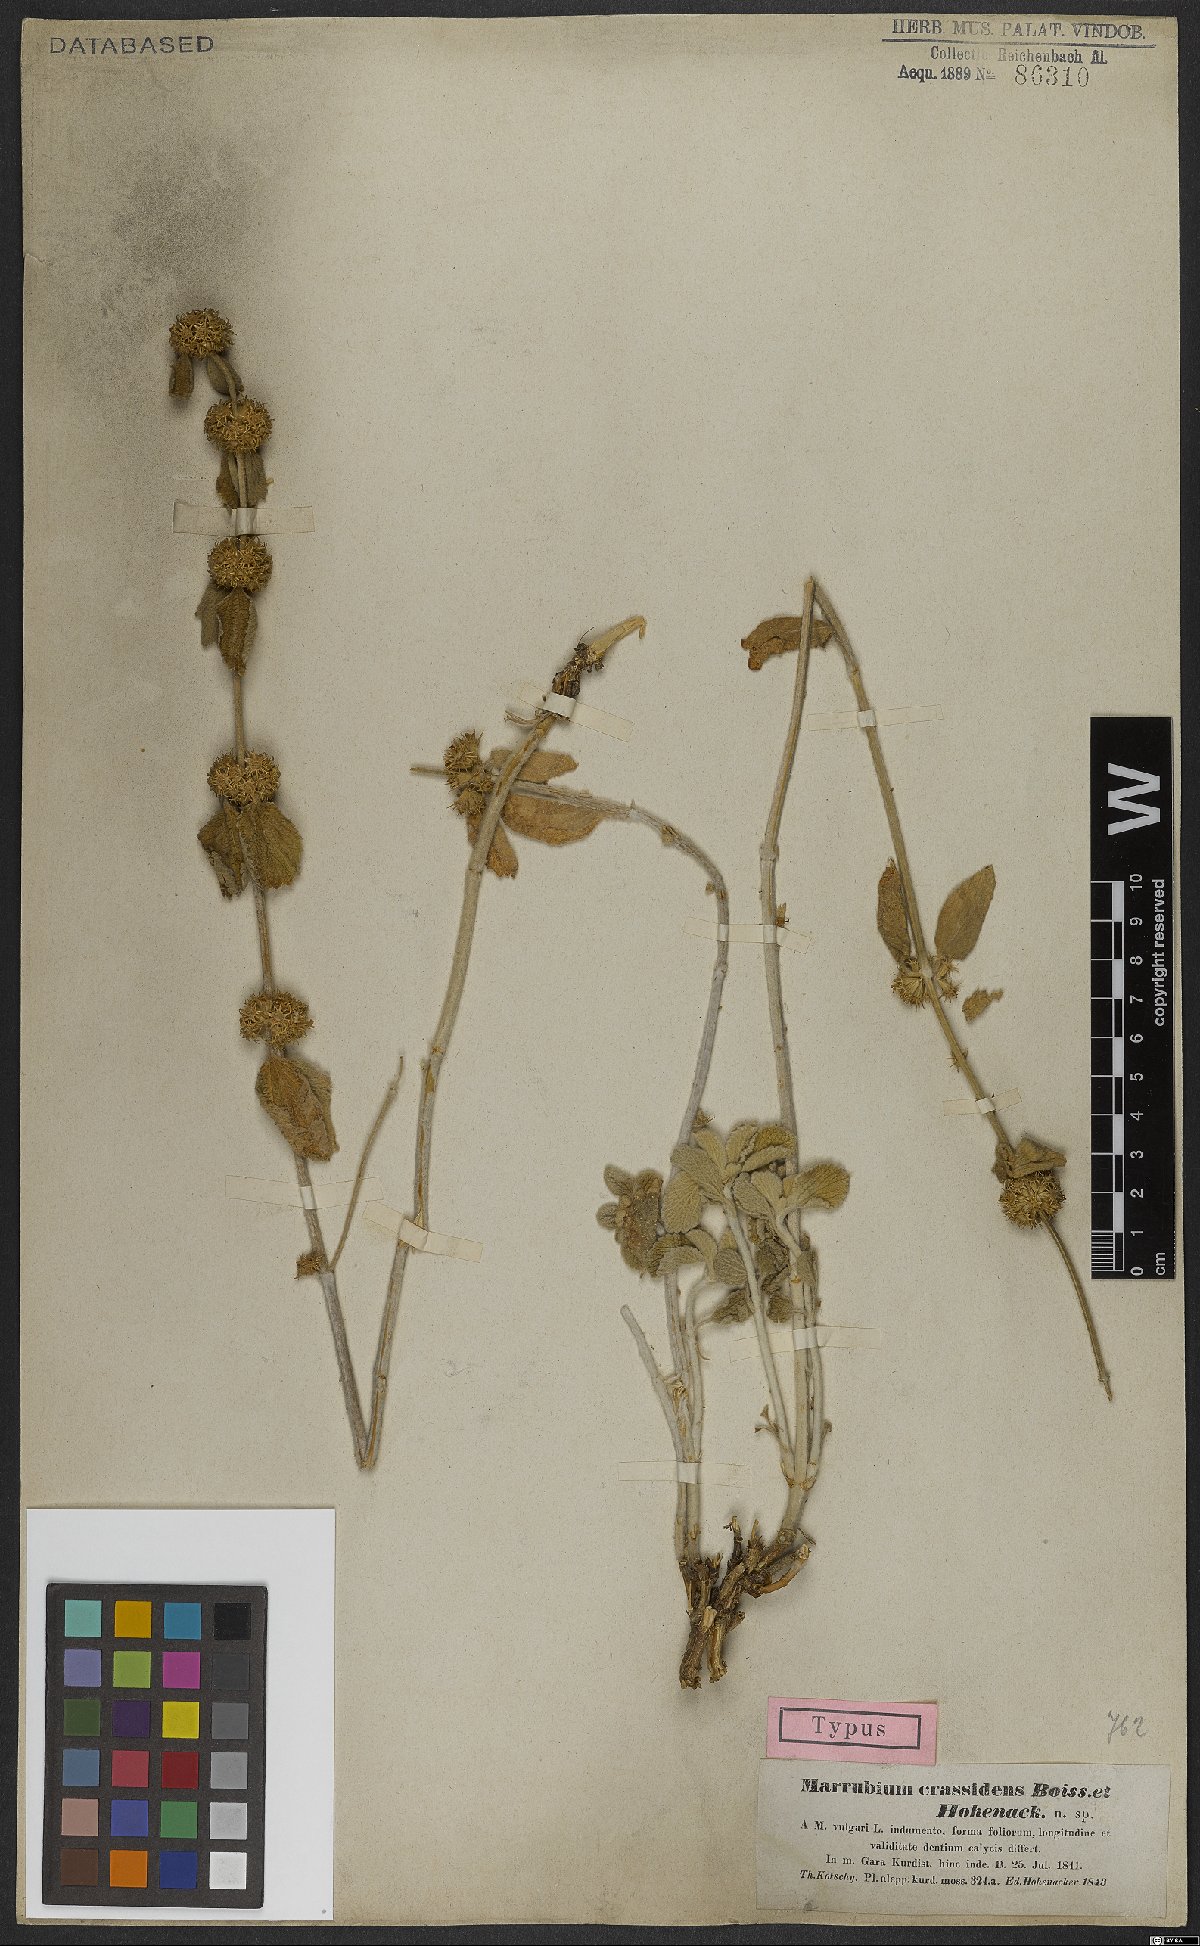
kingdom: Plantae
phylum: Tracheophyta
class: Magnoliopsida
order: Lamiales
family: Lamiaceae
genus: Marrubium
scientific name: Marrubium crassidens
